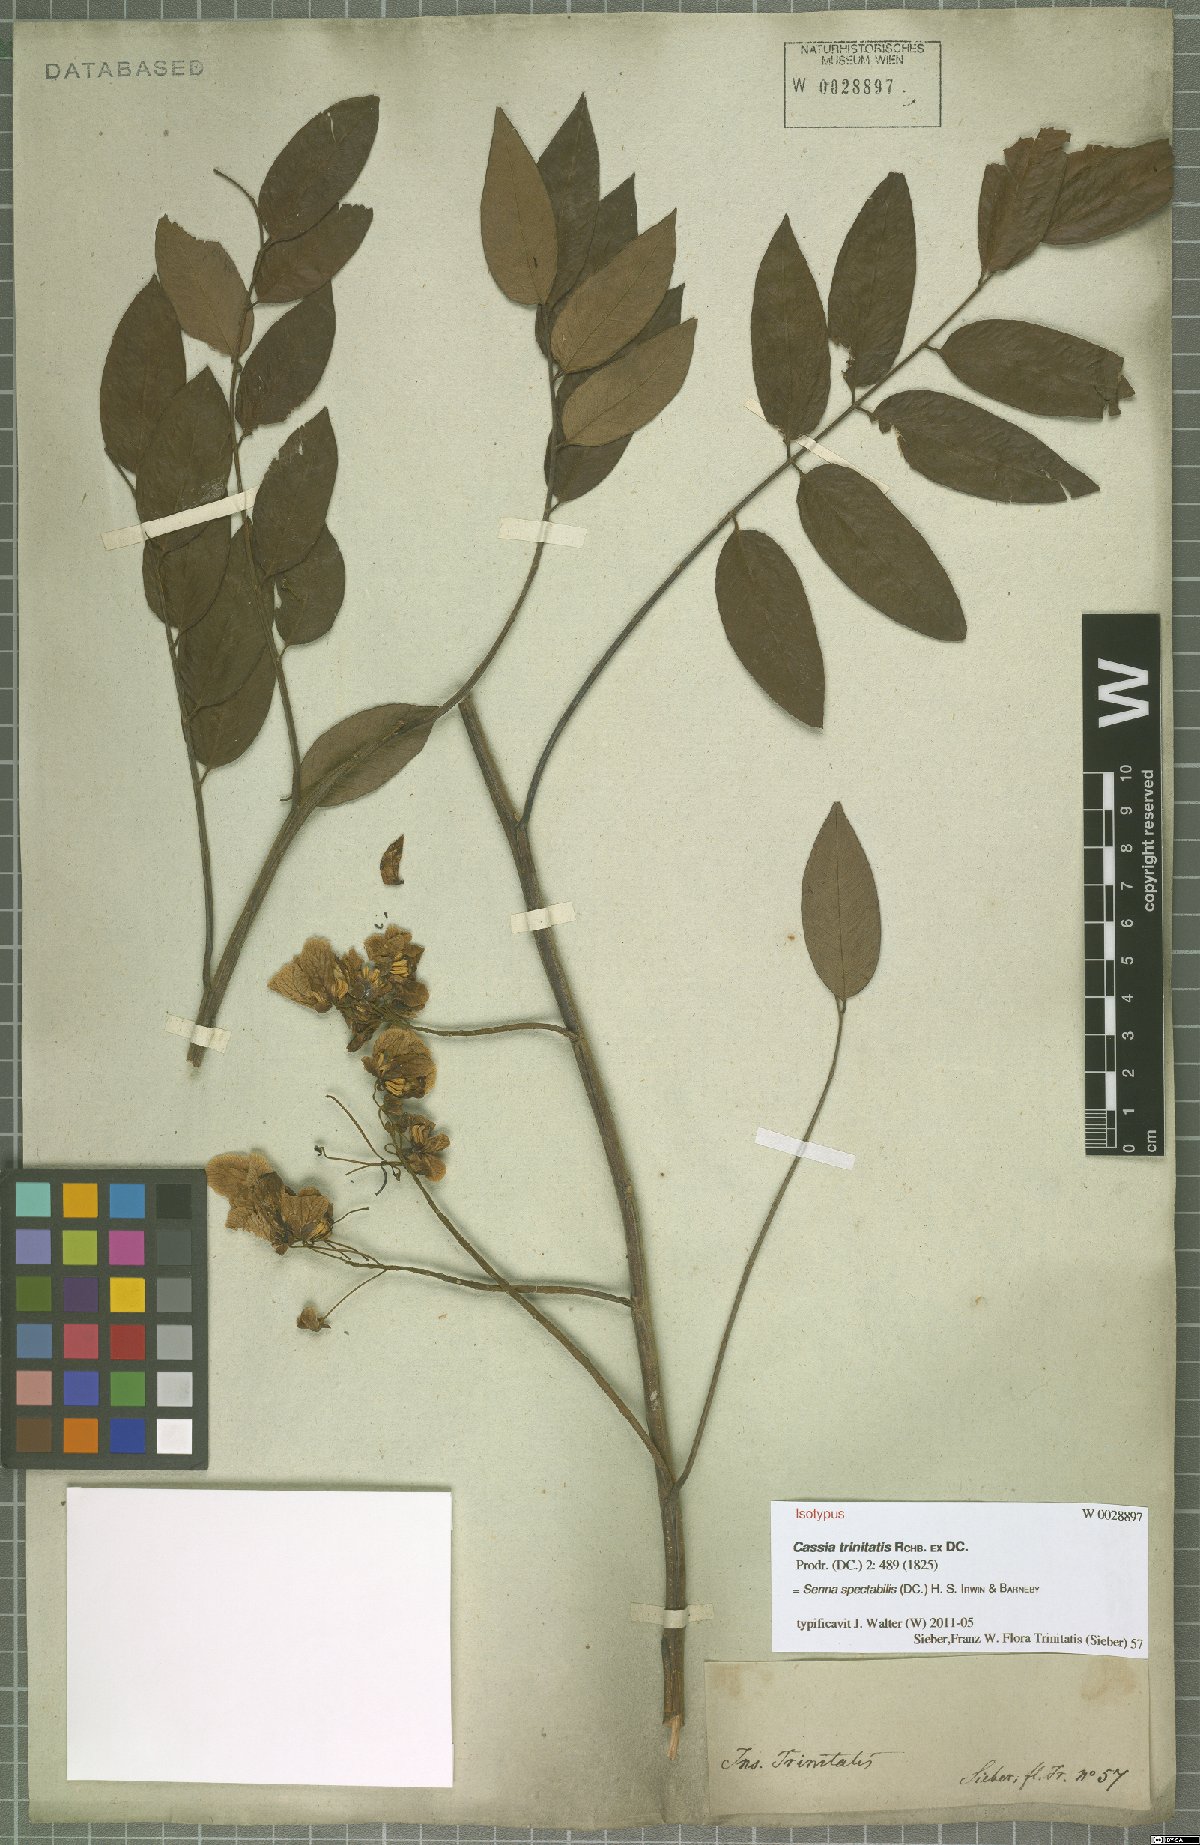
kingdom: Plantae
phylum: Tracheophyta
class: Magnoliopsida
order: Fabales
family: Fabaceae
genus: Senna
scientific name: Senna spectabilis
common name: Casia amarilla
